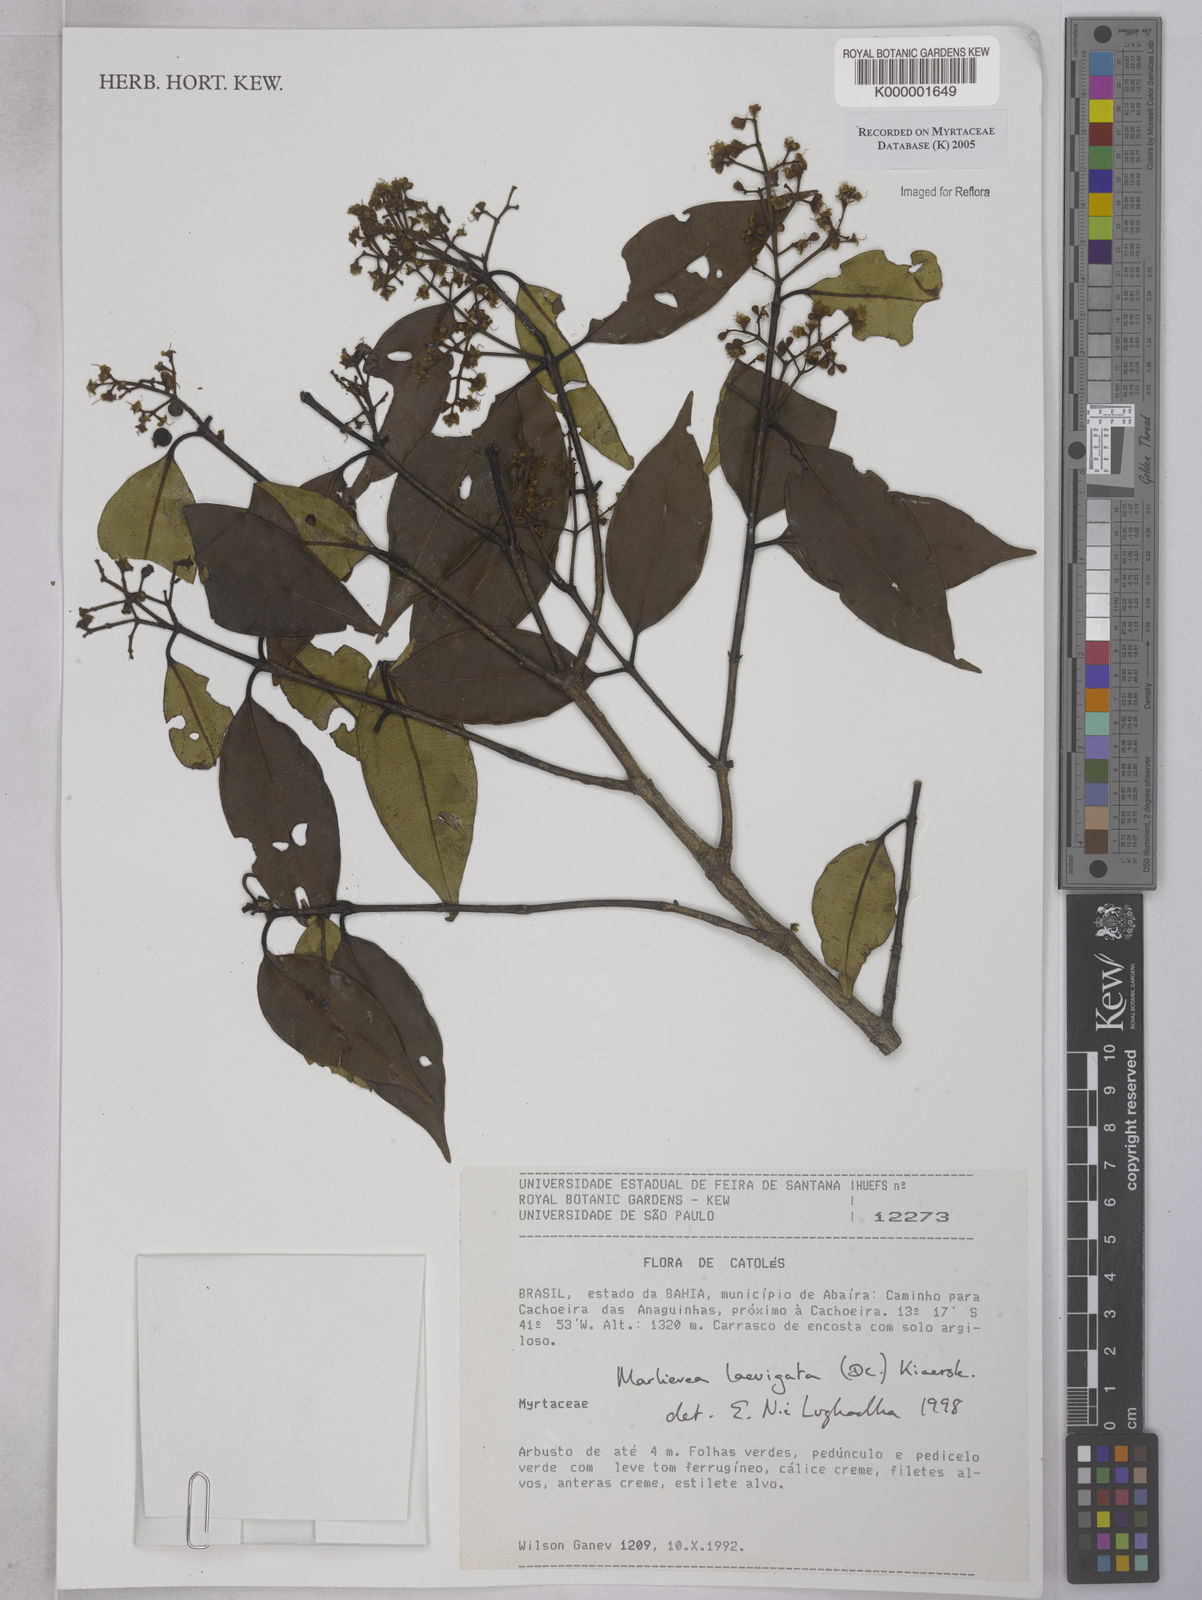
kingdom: Plantae
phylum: Tracheophyta
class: Magnoliopsida
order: Myrtales
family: Myrtaceae
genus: Myrcia
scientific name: Myrcia multipunctata
